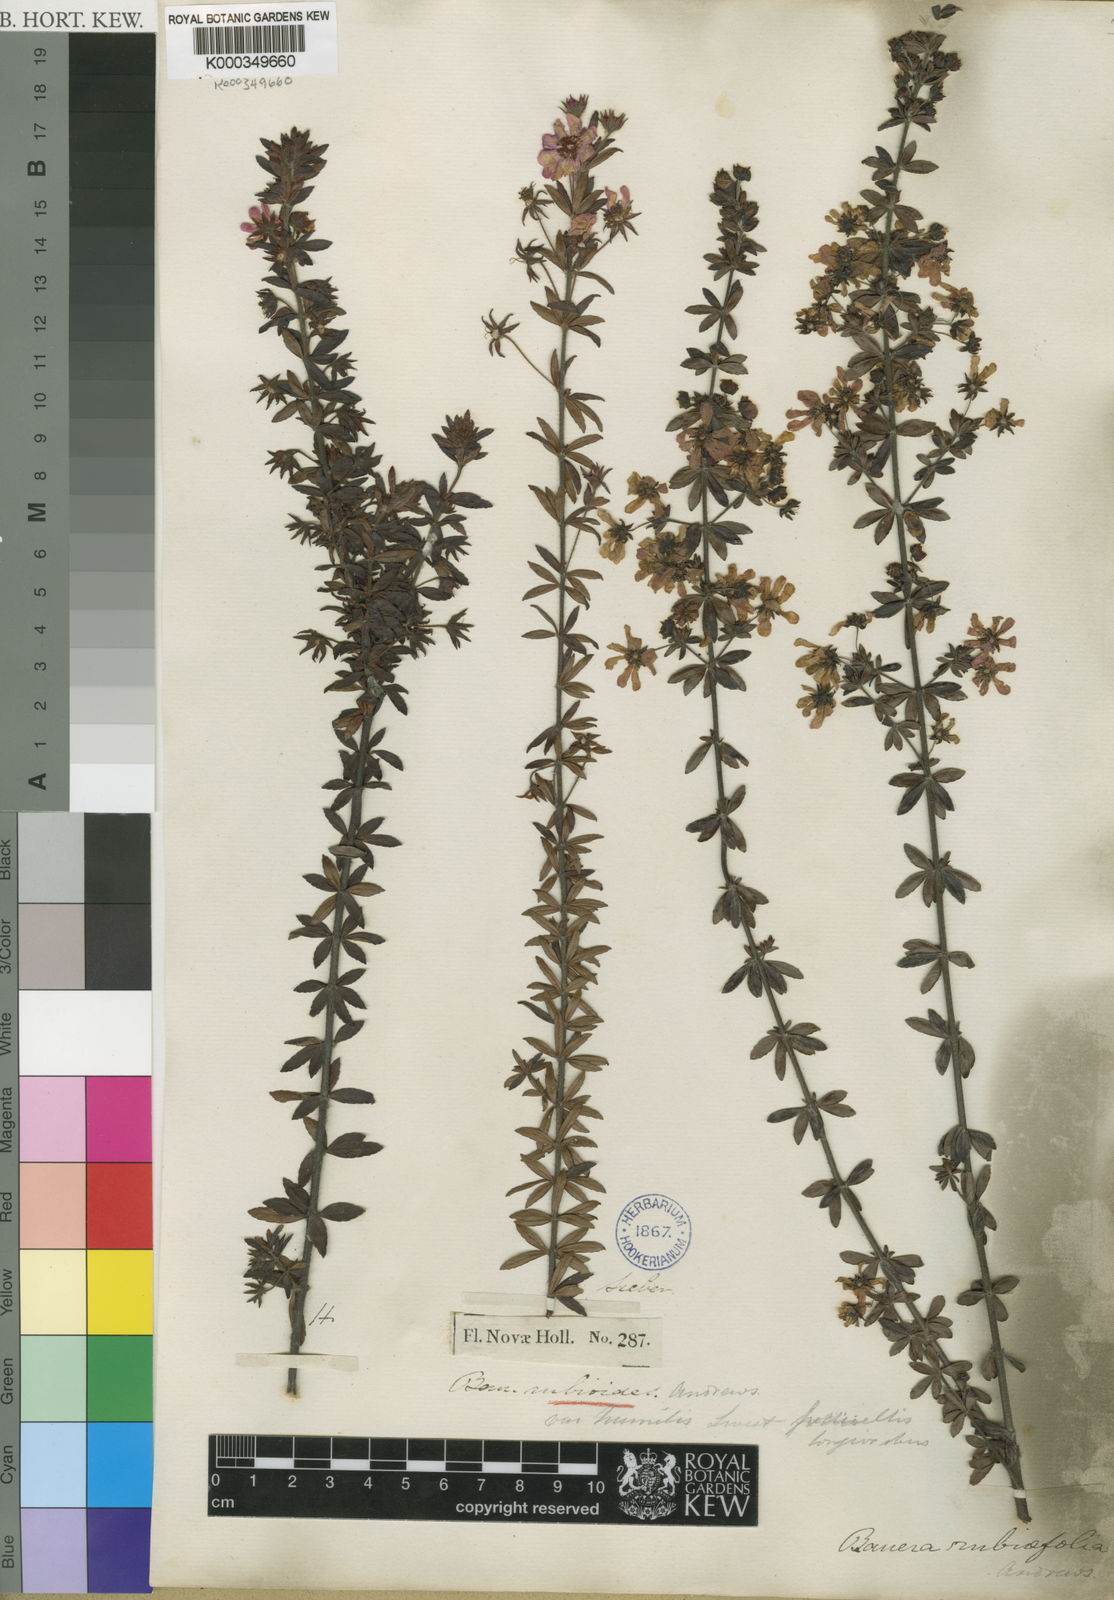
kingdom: Plantae
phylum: Tracheophyta
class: Magnoliopsida
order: Oxalidales
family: Cunoniaceae
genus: Bauera
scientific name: Bauera rubioides
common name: River-rose
